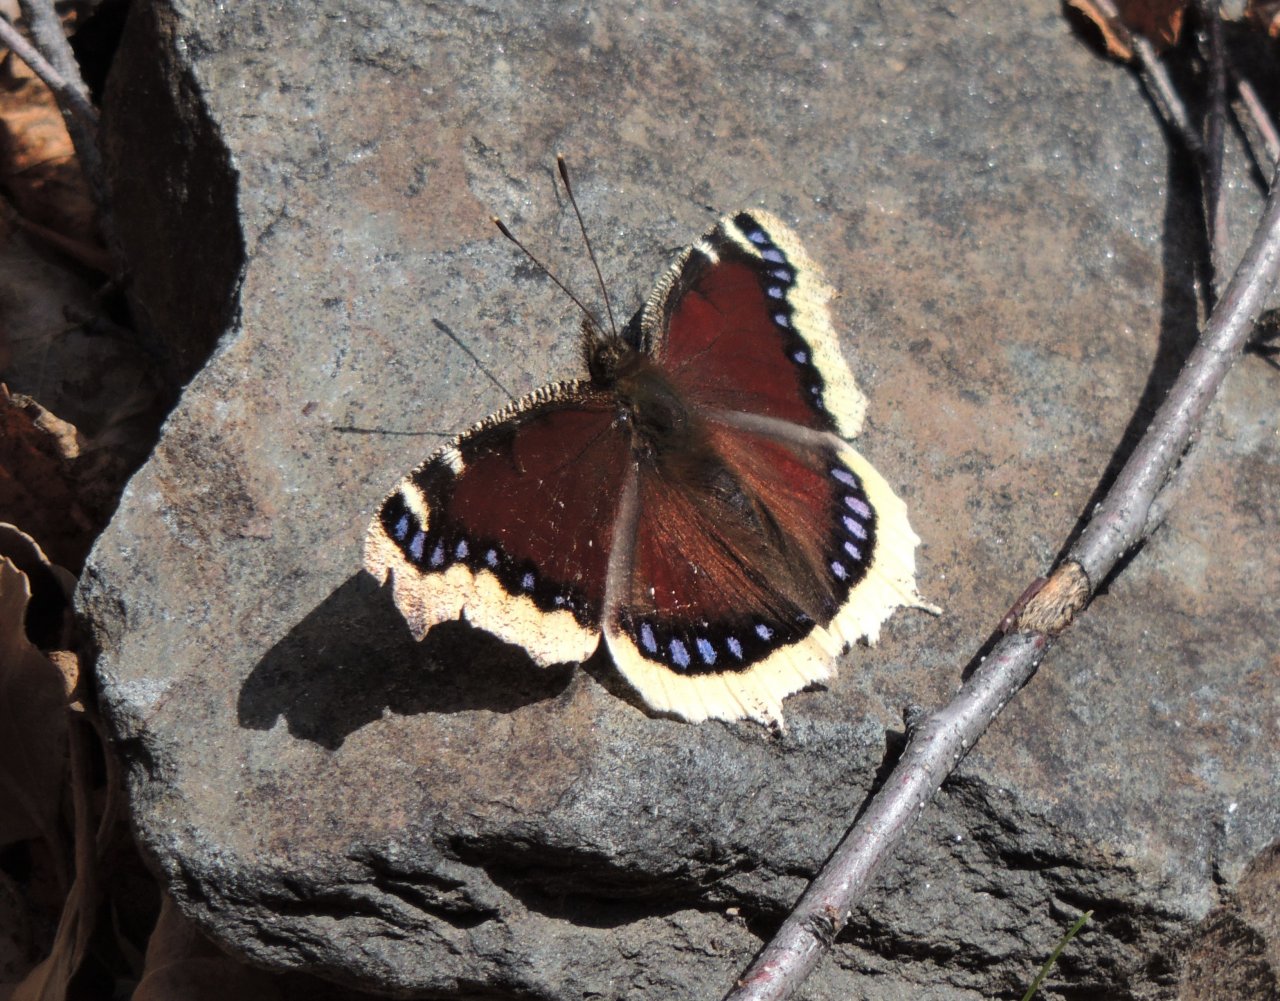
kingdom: Animalia
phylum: Arthropoda
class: Insecta
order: Lepidoptera
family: Nymphalidae
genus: Nymphalis
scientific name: Nymphalis antiopa
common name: Mourning Cloak
